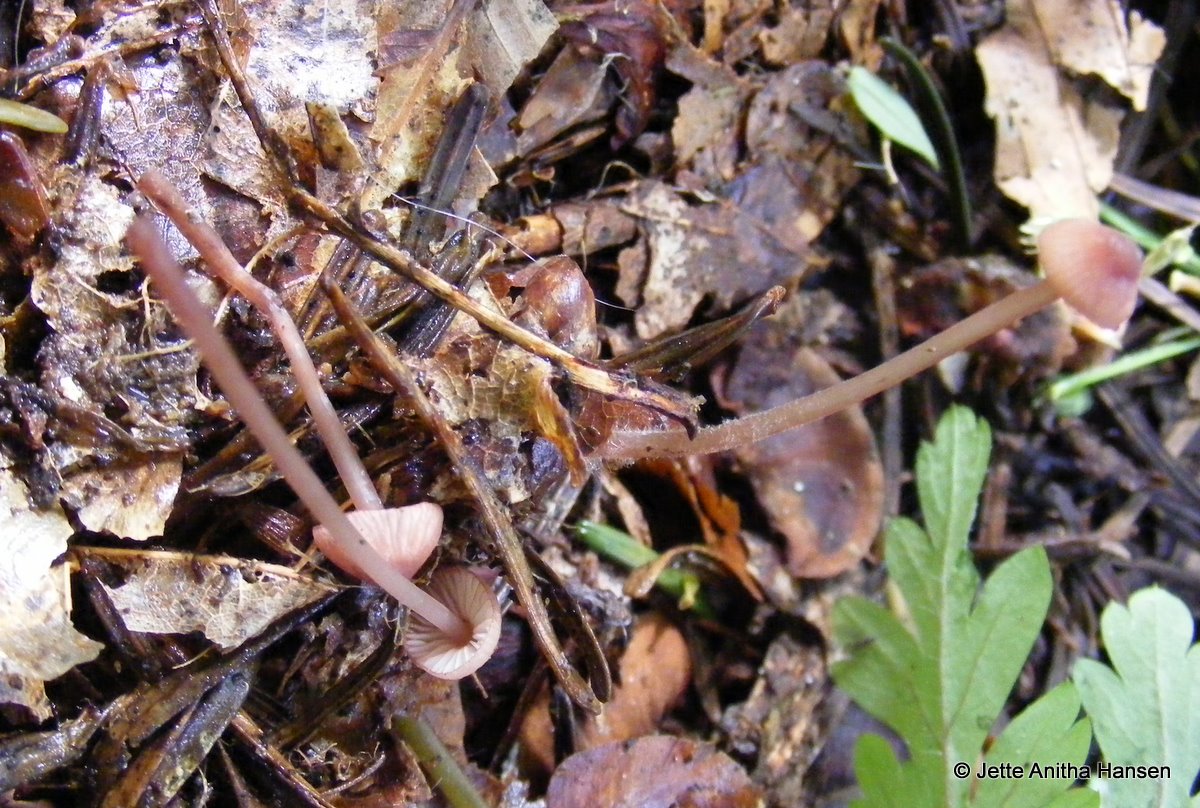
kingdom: Fungi
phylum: Basidiomycota
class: Agaricomycetes
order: Agaricales
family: Mycenaceae
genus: Mycena
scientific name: Mycena sanguinolenta
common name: rødmælket huesvamp
